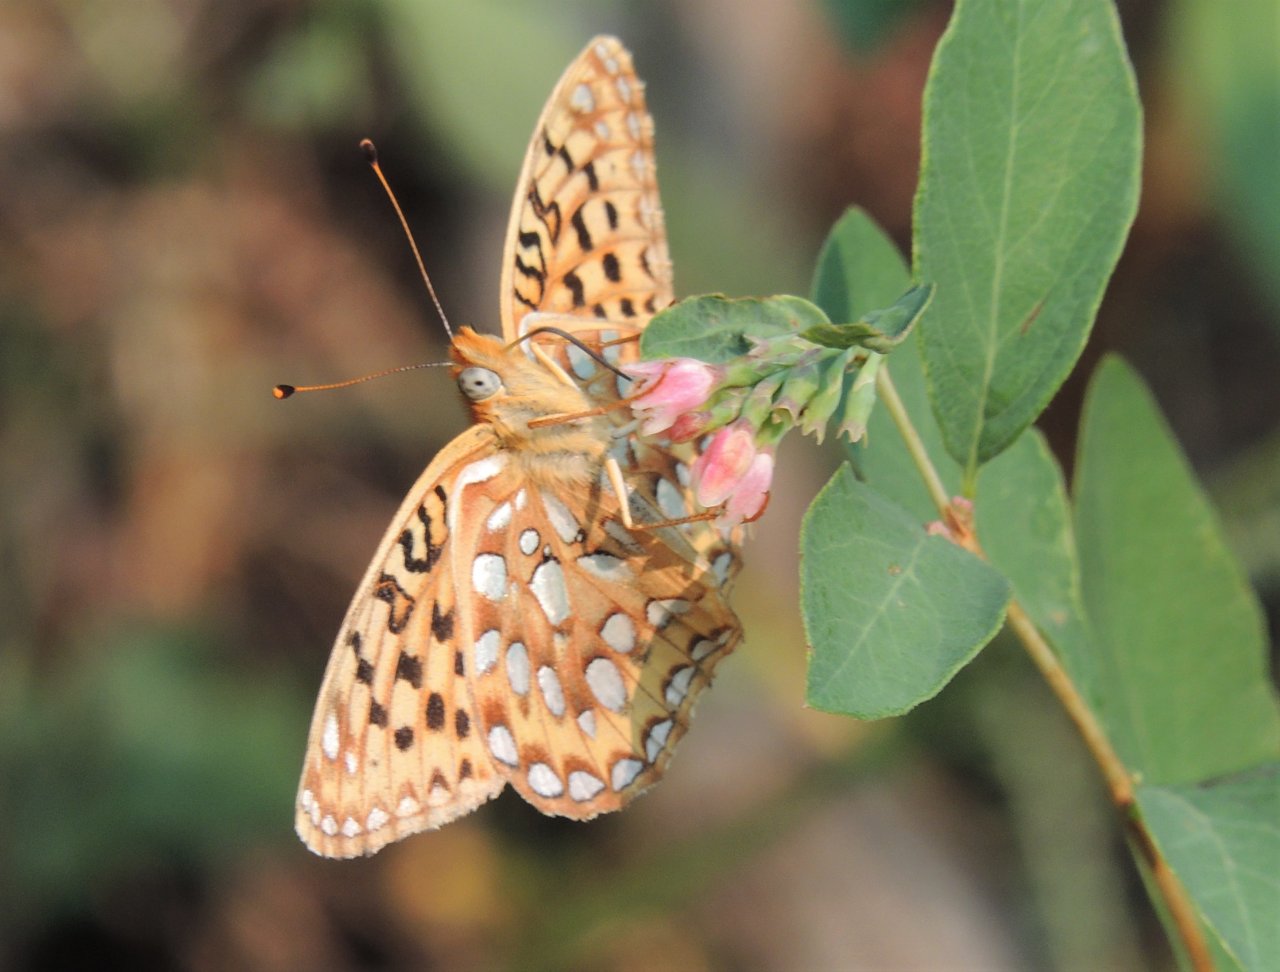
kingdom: Animalia
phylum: Arthropoda
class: Insecta
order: Lepidoptera
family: Nymphalidae
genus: Speyeria
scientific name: Speyeria zerene
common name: Zerene Fritillary
